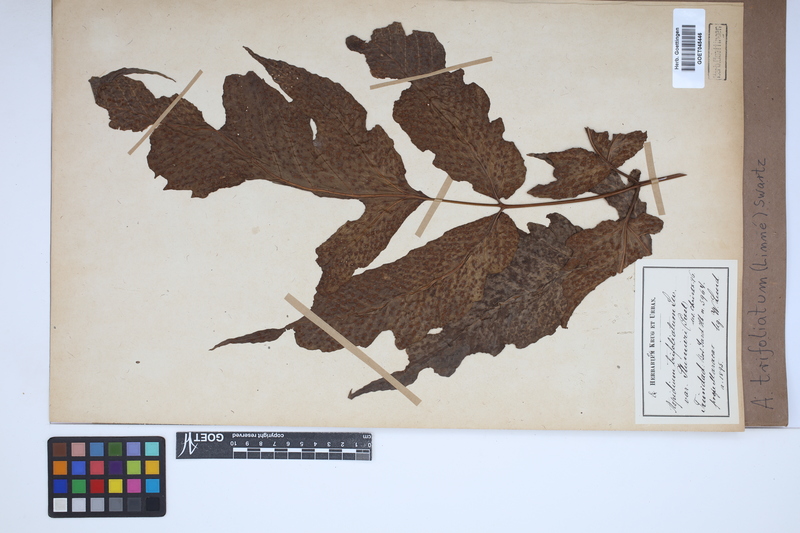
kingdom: Plantae
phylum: Tracheophyta
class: Polypodiopsida
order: Polypodiales
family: Tectariaceae
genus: Tectaria
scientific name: Tectaria trifoliata
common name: Threeleaf halberd fern
